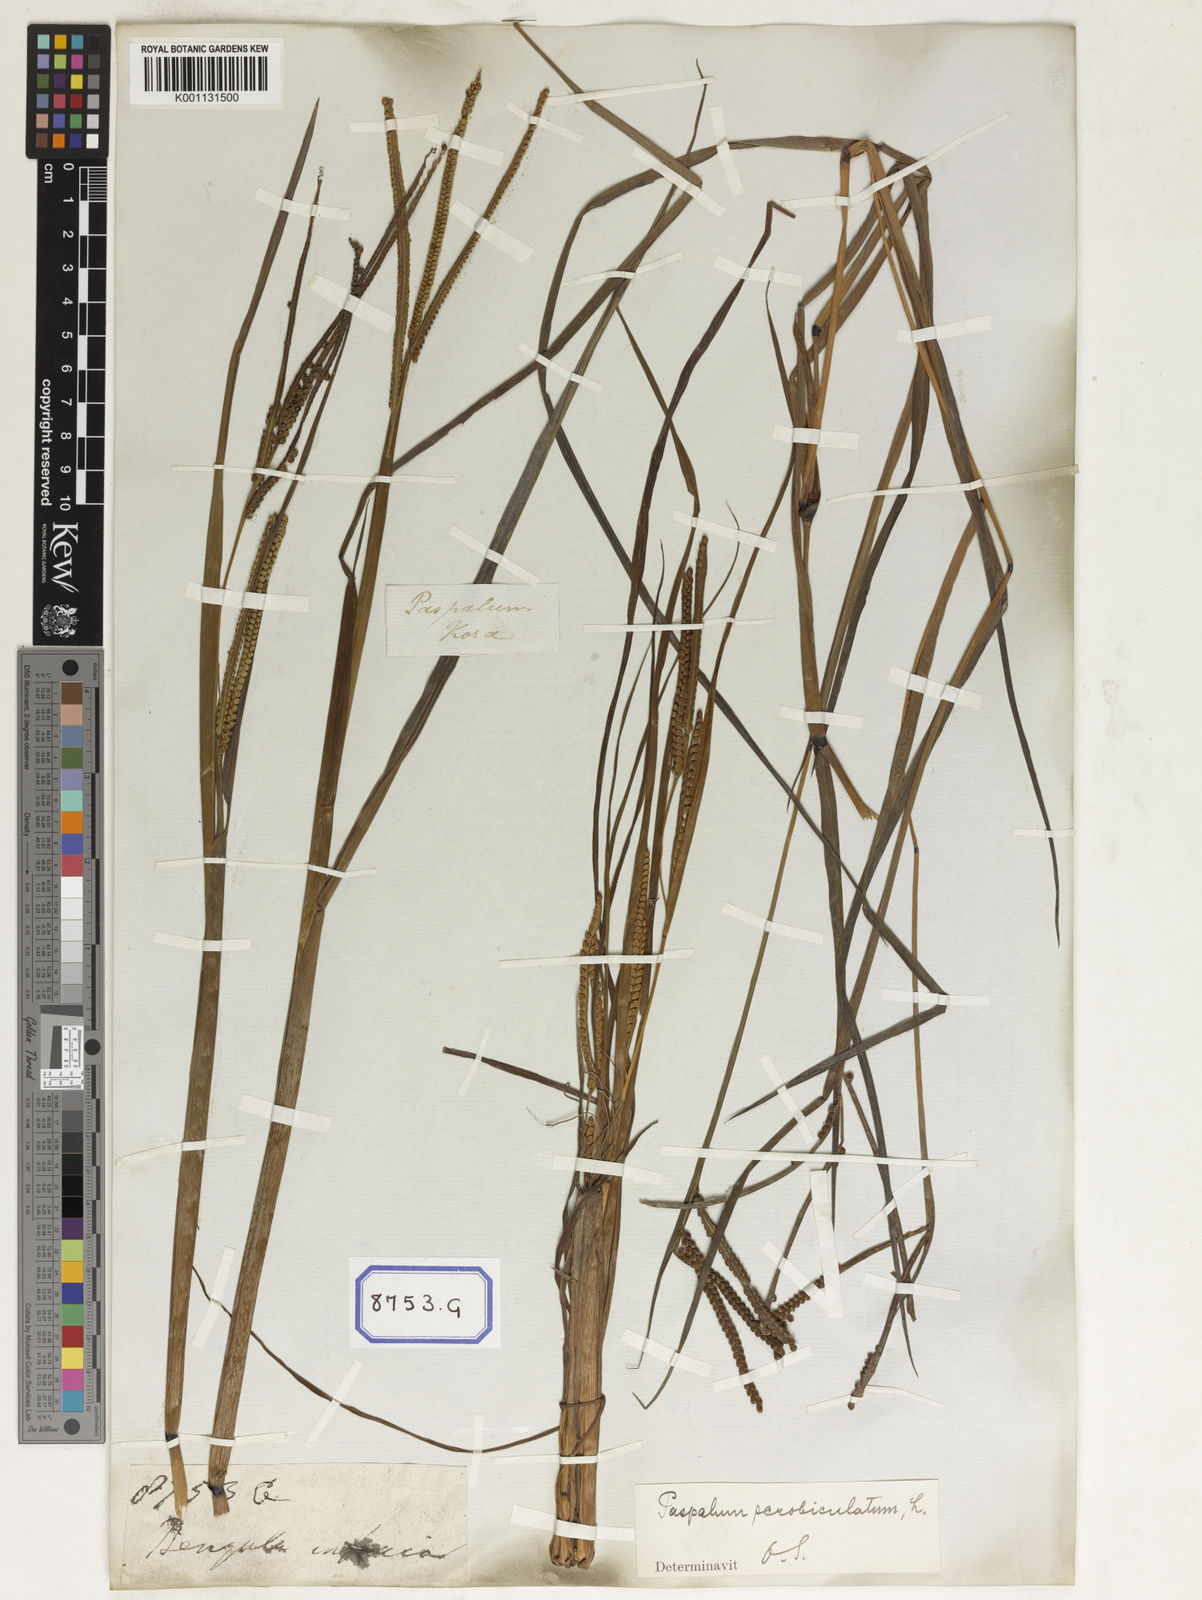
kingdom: Plantae
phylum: Tracheophyta
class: Liliopsida
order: Poales
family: Poaceae
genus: Paspalum
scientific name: Paspalum scrobiculatum
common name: Kodo millet
